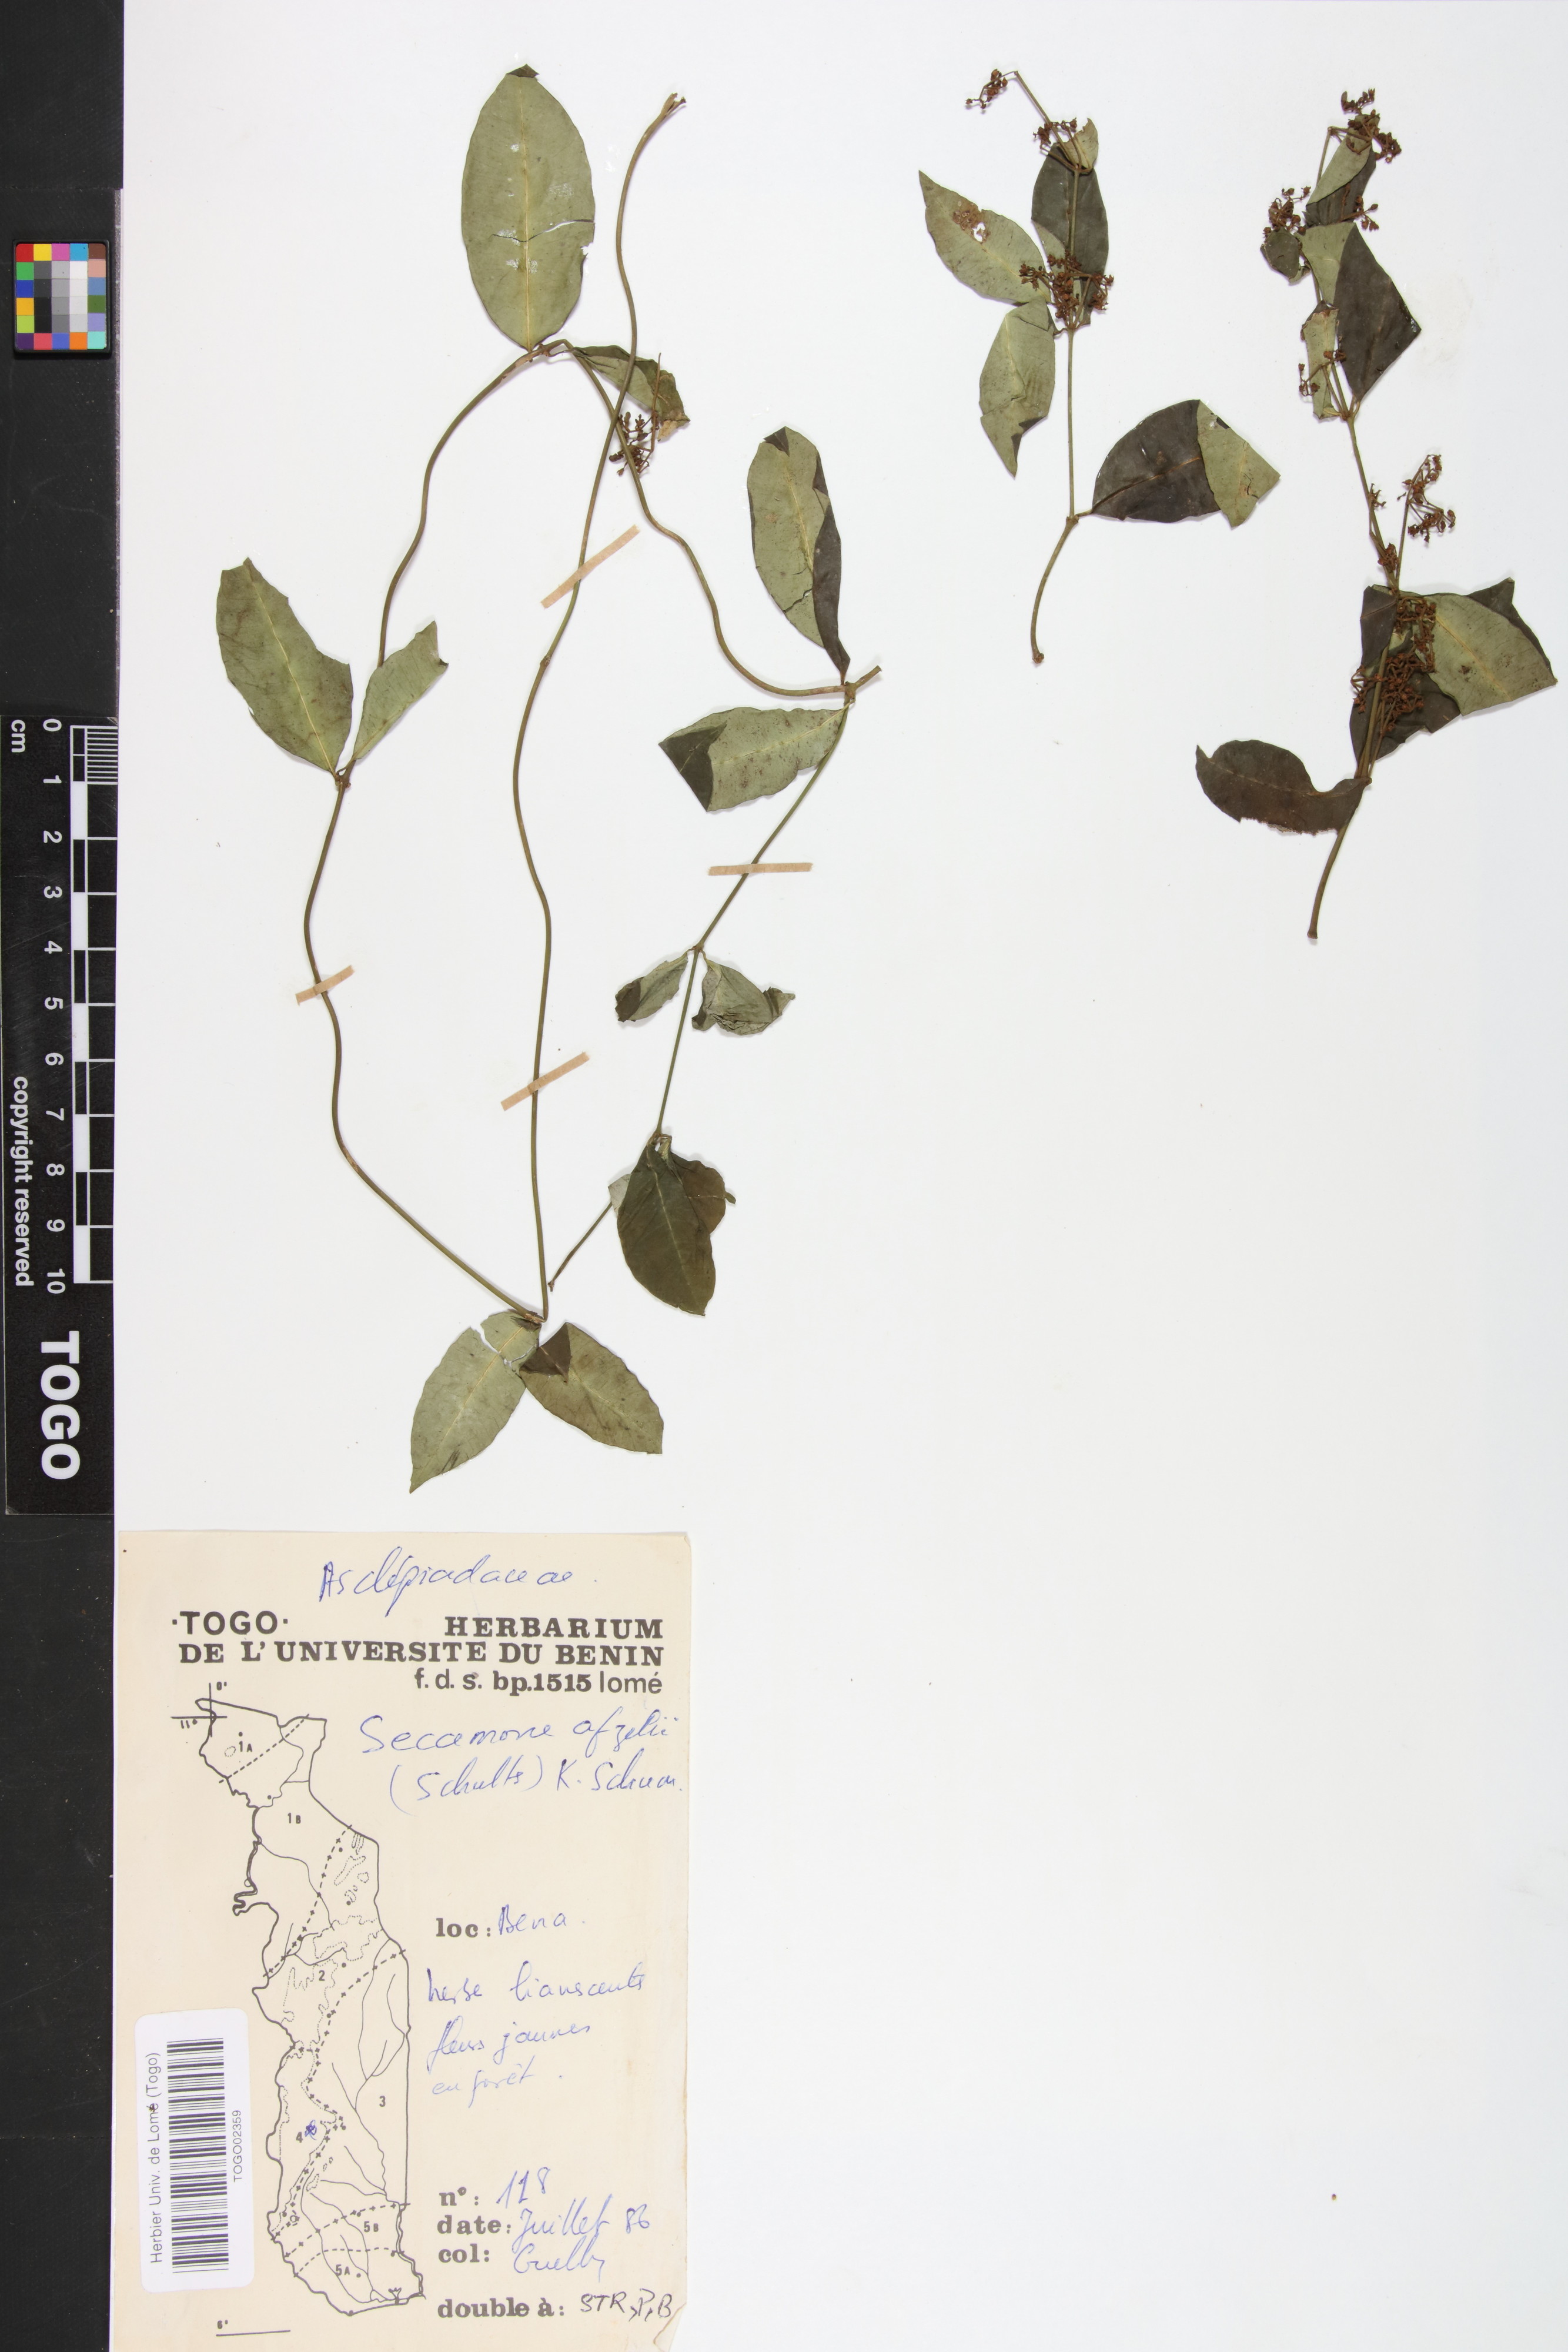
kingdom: Plantae
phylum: Tracheophyta
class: Magnoliopsida
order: Gentianales
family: Apocynaceae
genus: Secamone
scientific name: Secamone afzelii
